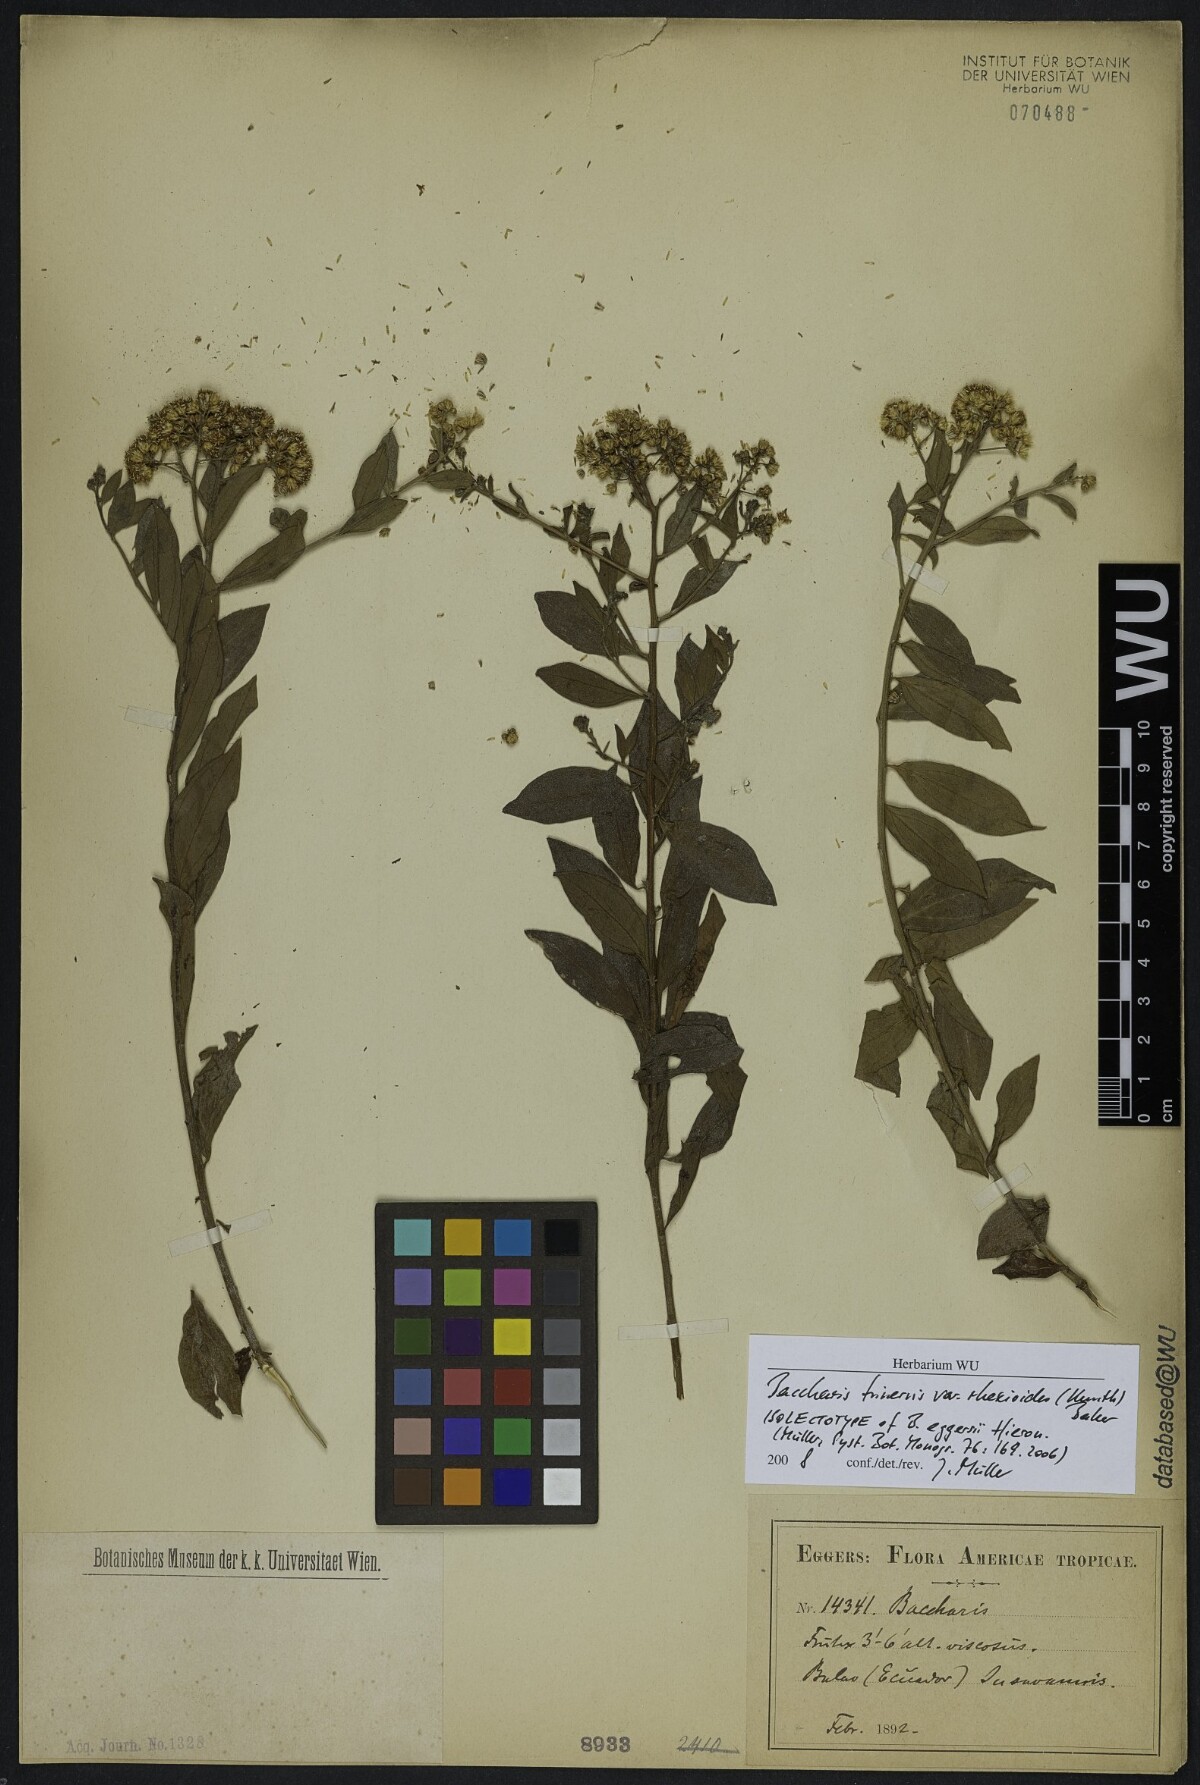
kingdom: Plantae
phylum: Tracheophyta
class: Magnoliopsida
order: Asterales
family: Asteraceae
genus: Baccharis
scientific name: Baccharis trinervis
